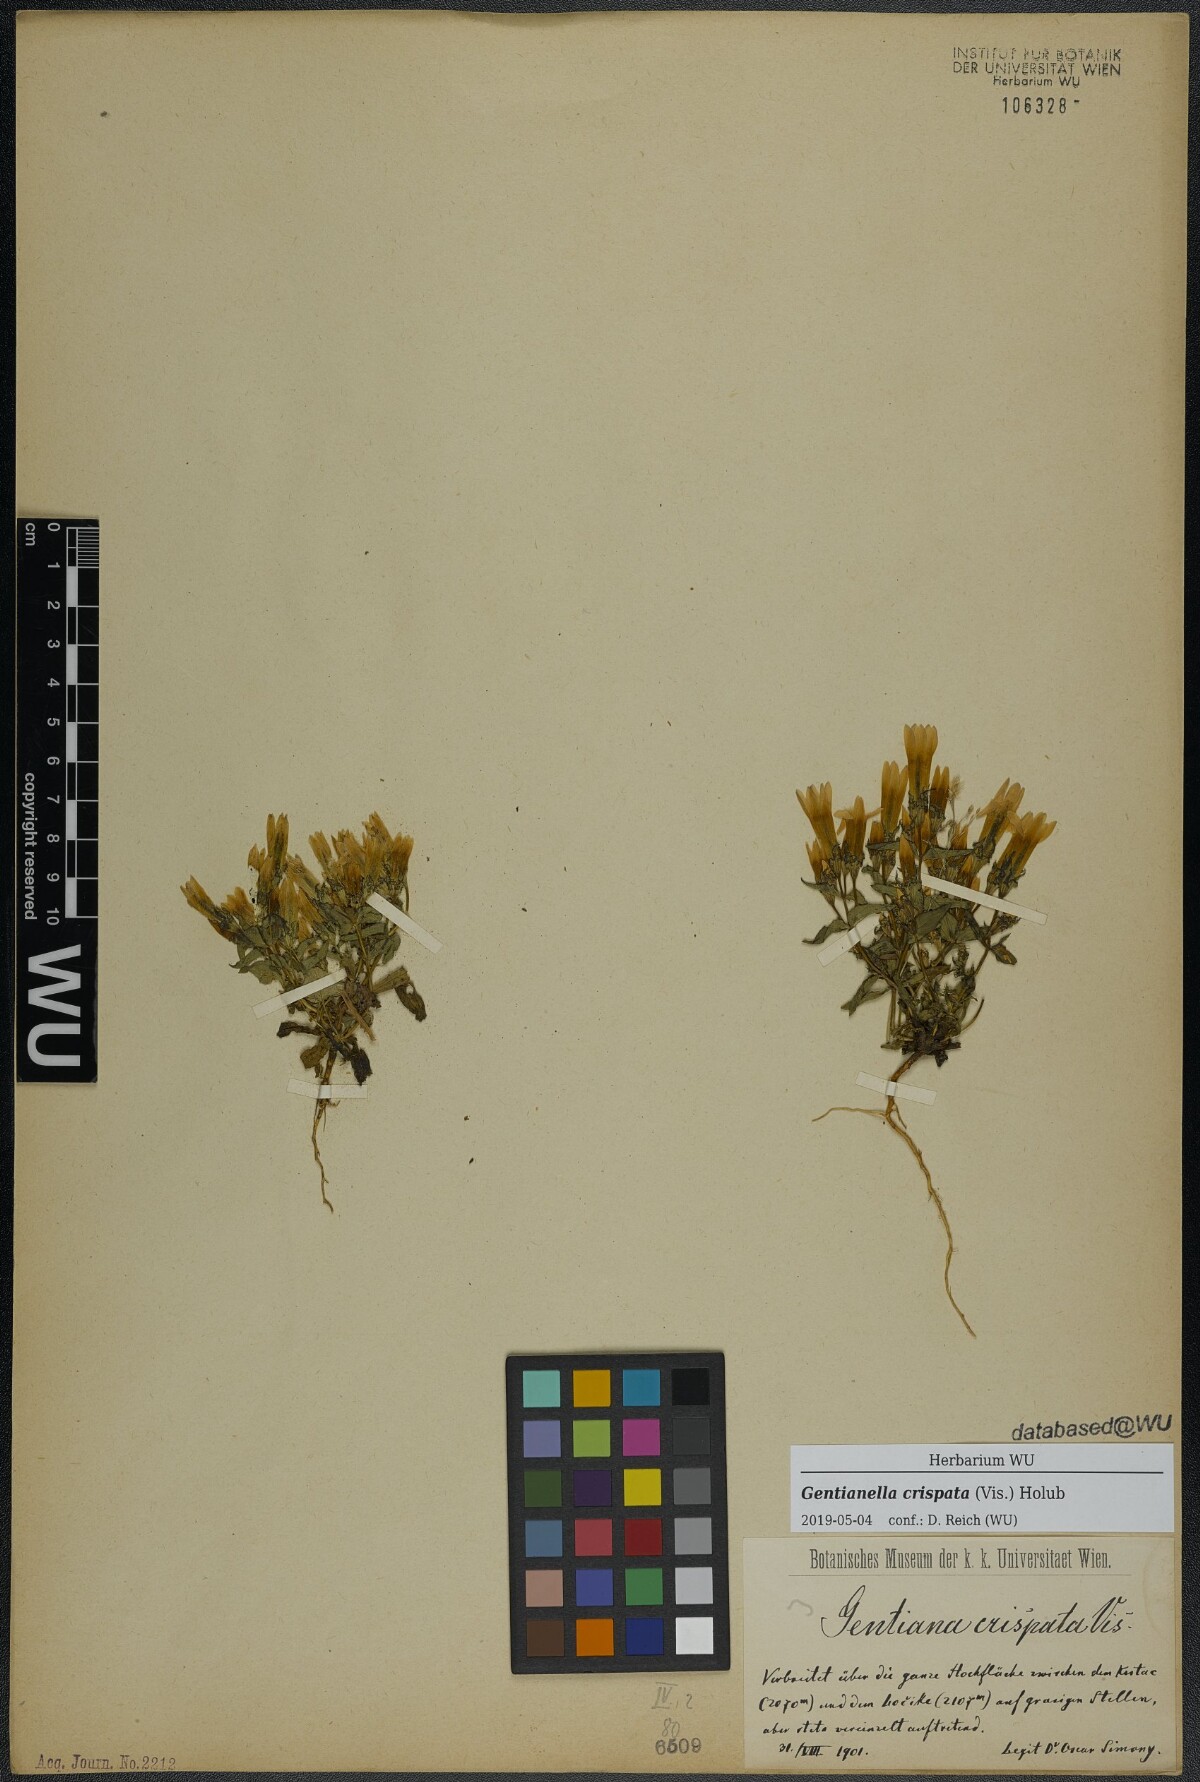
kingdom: Plantae
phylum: Tracheophyta
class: Magnoliopsida
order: Gentianales
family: Gentianaceae
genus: Gentianella
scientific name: Gentianella crispata
